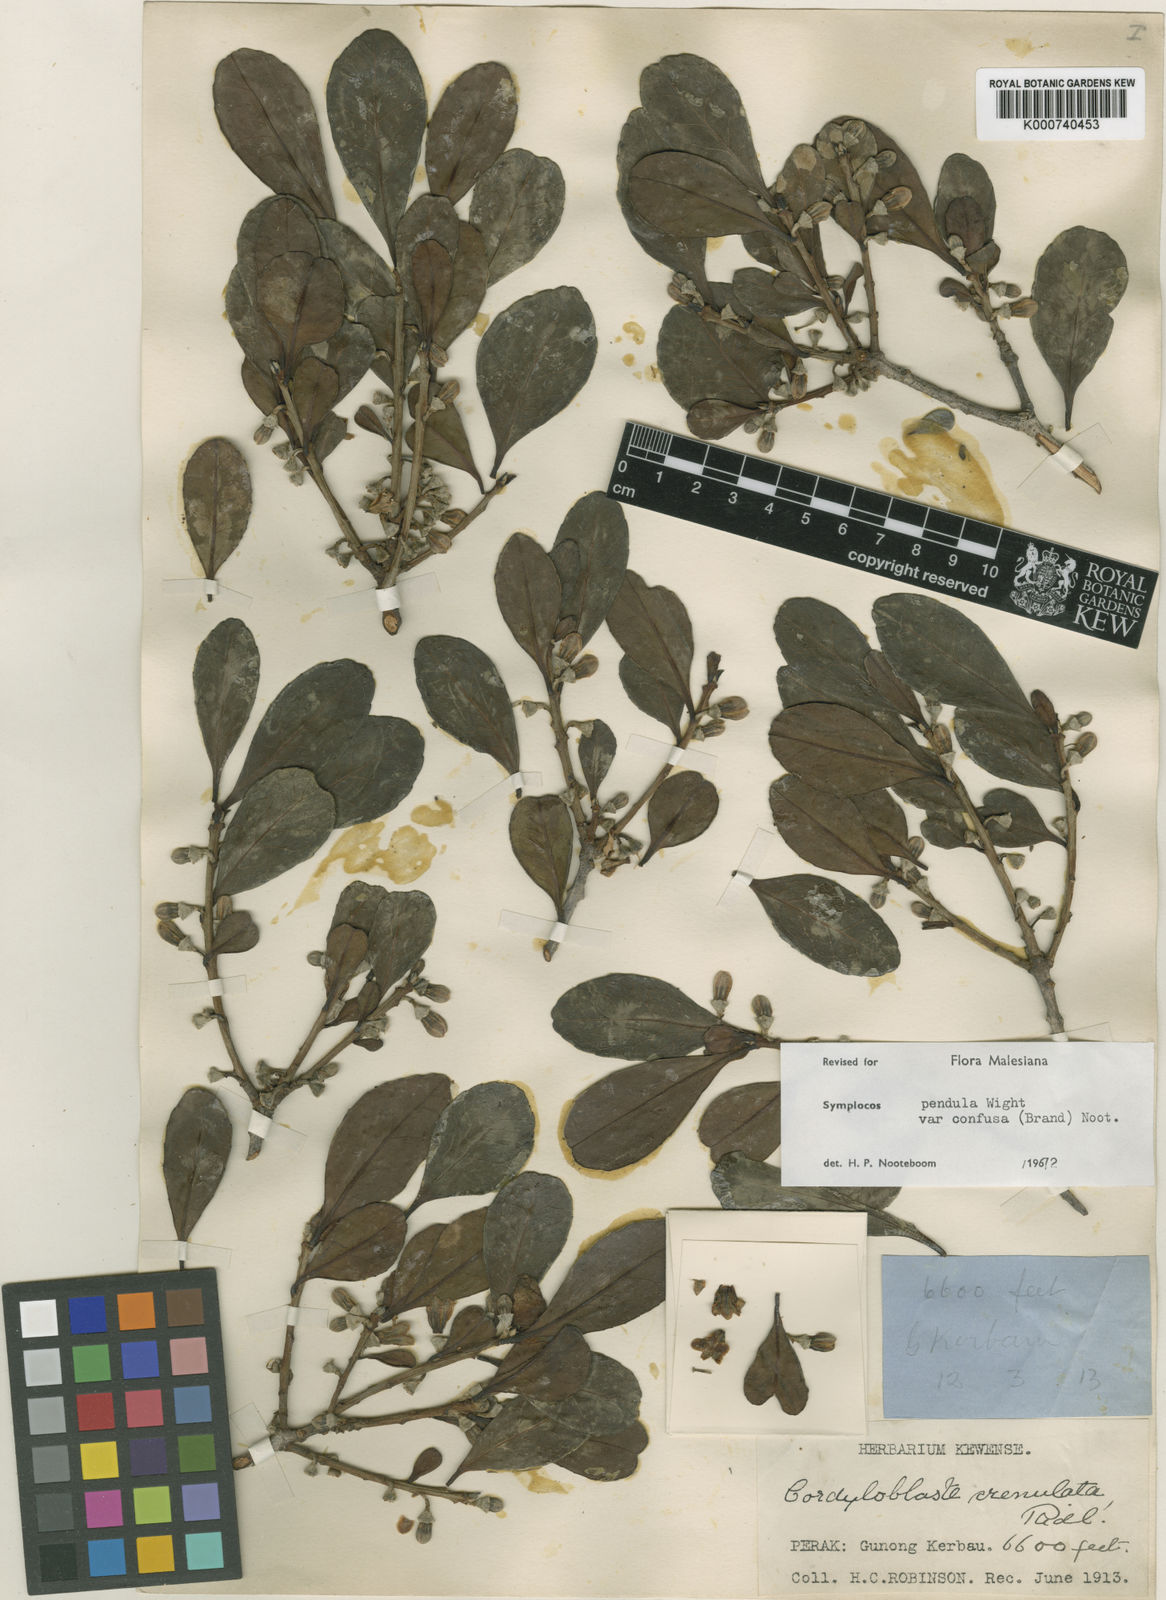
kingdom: Plantae
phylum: Tracheophyta
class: Magnoliopsida
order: Ericales
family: Symplocaceae
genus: Symplocos
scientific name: Symplocos pendula
